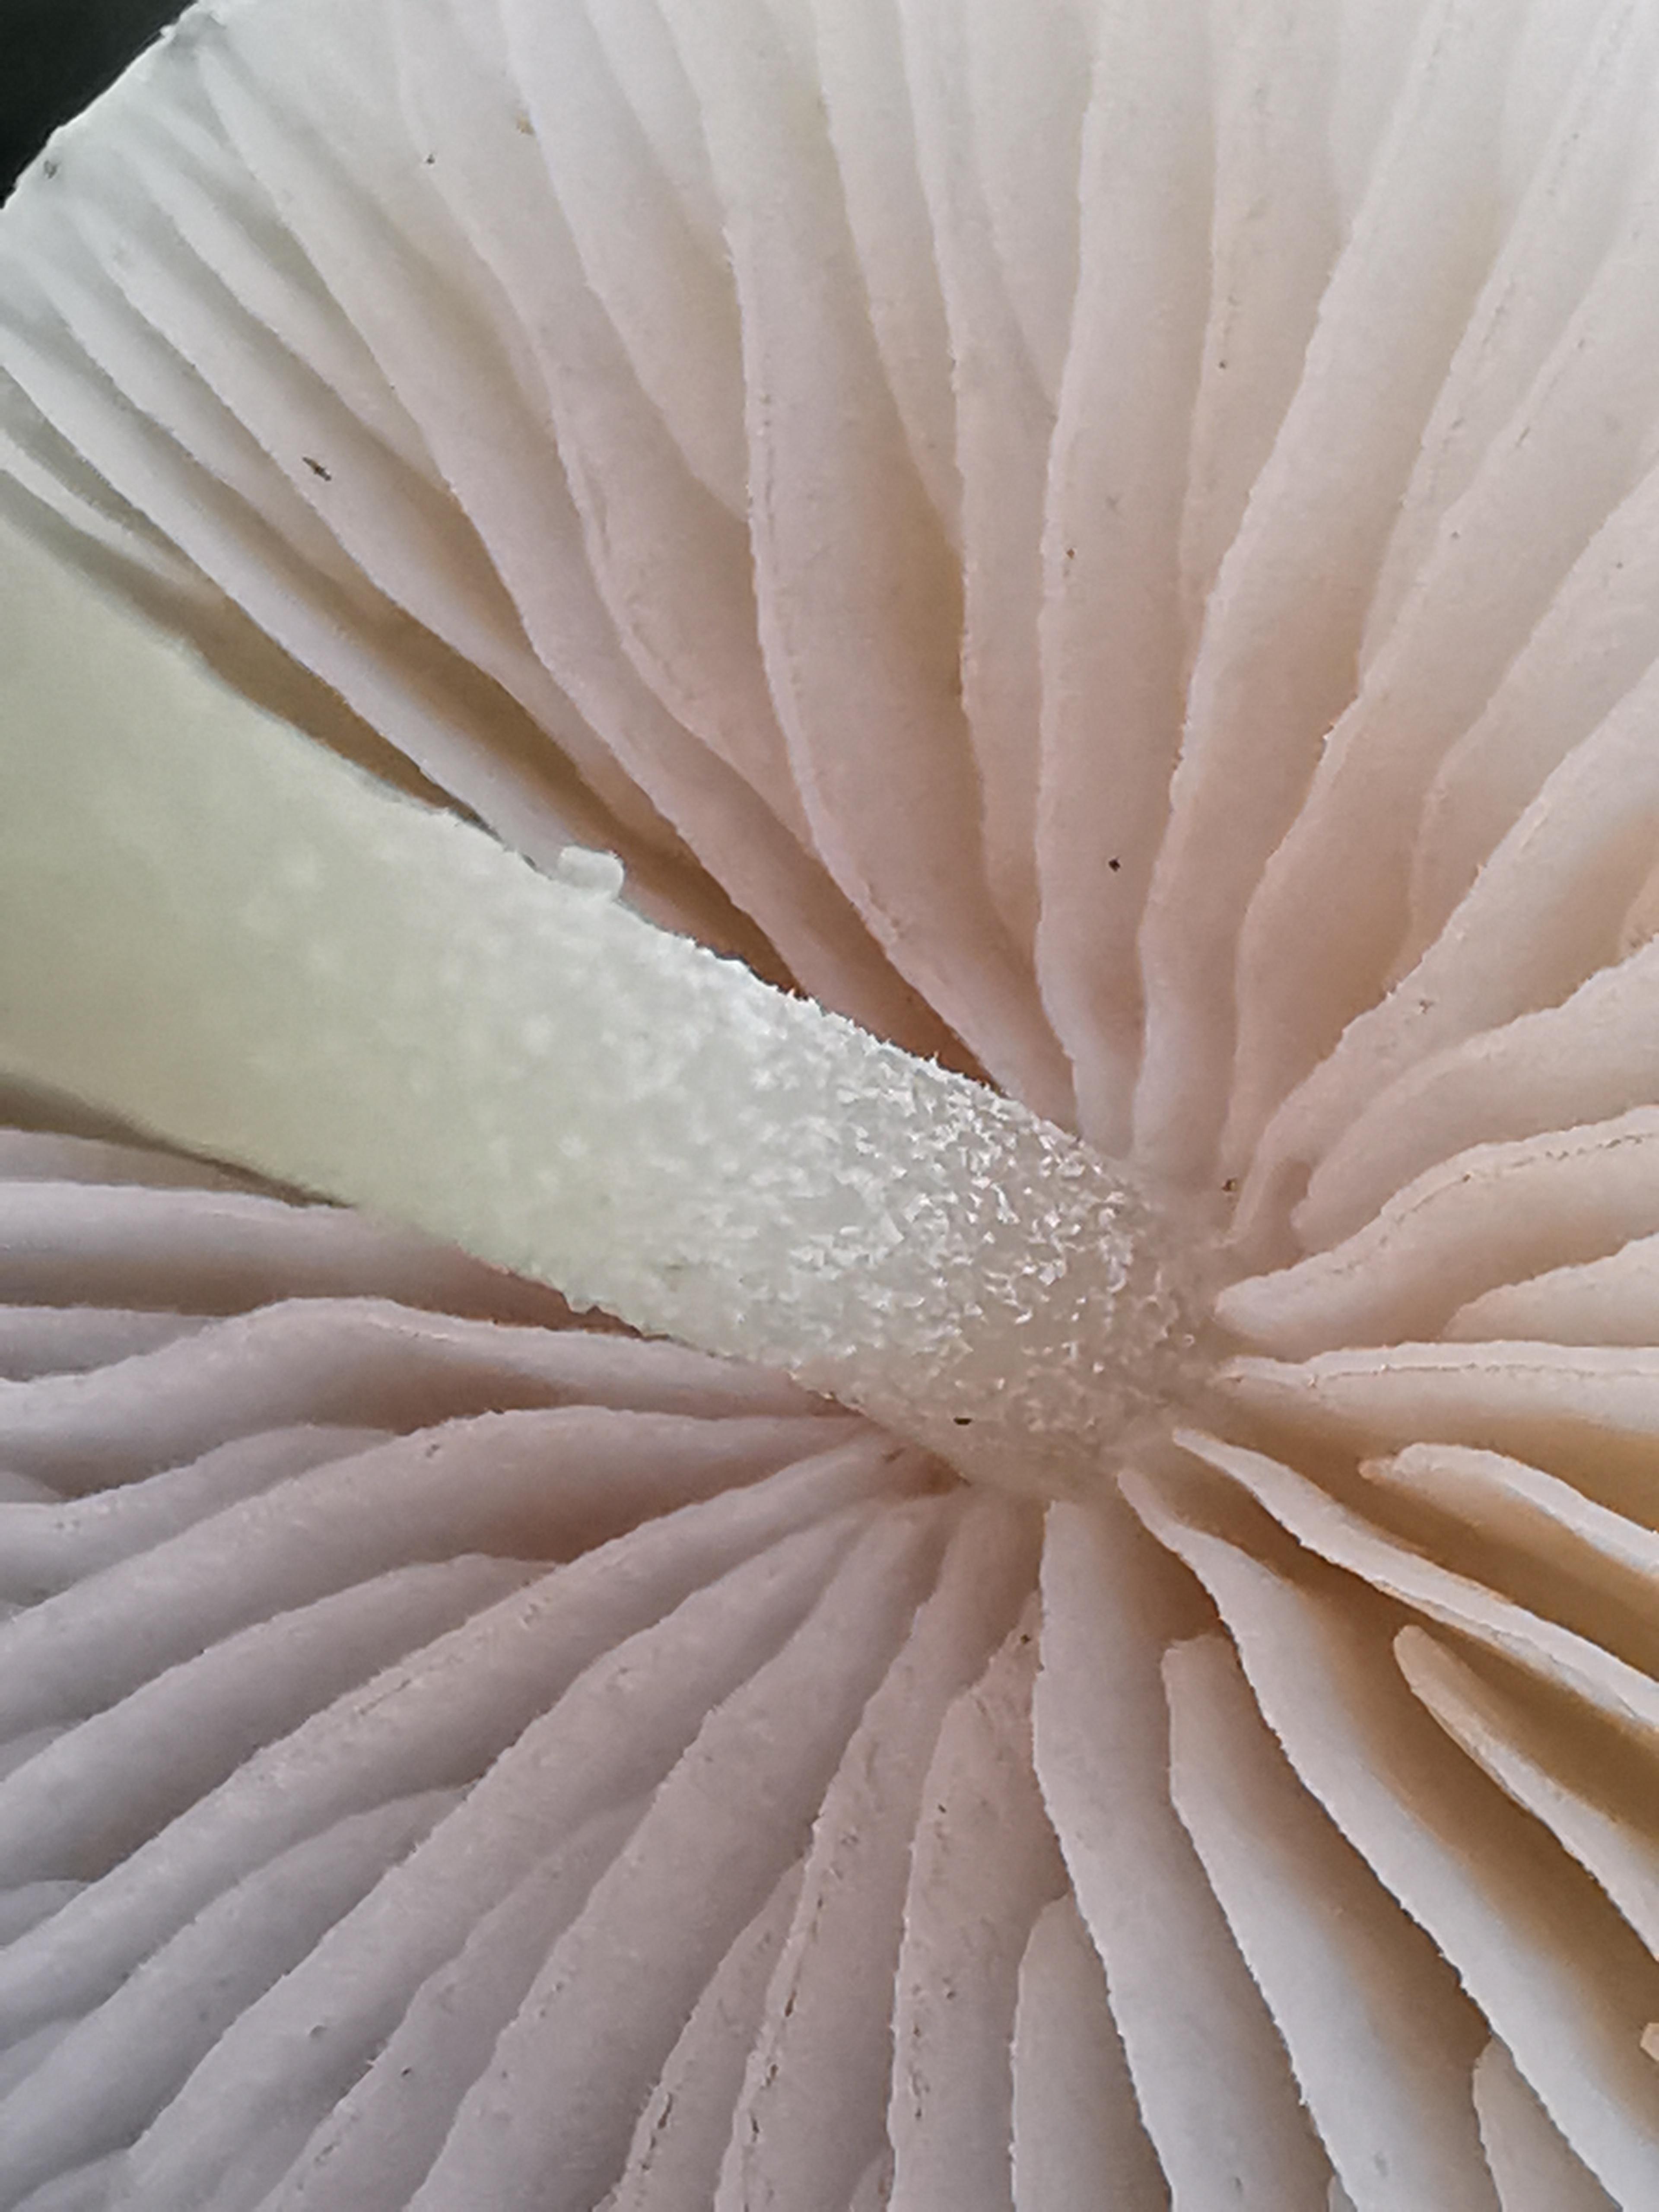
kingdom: Fungi
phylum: Basidiomycota
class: Agaricomycetes
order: Agaricales
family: Entolomataceae
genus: Entoloma
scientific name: Entoloma sericellum
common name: silkehvid rødblad
